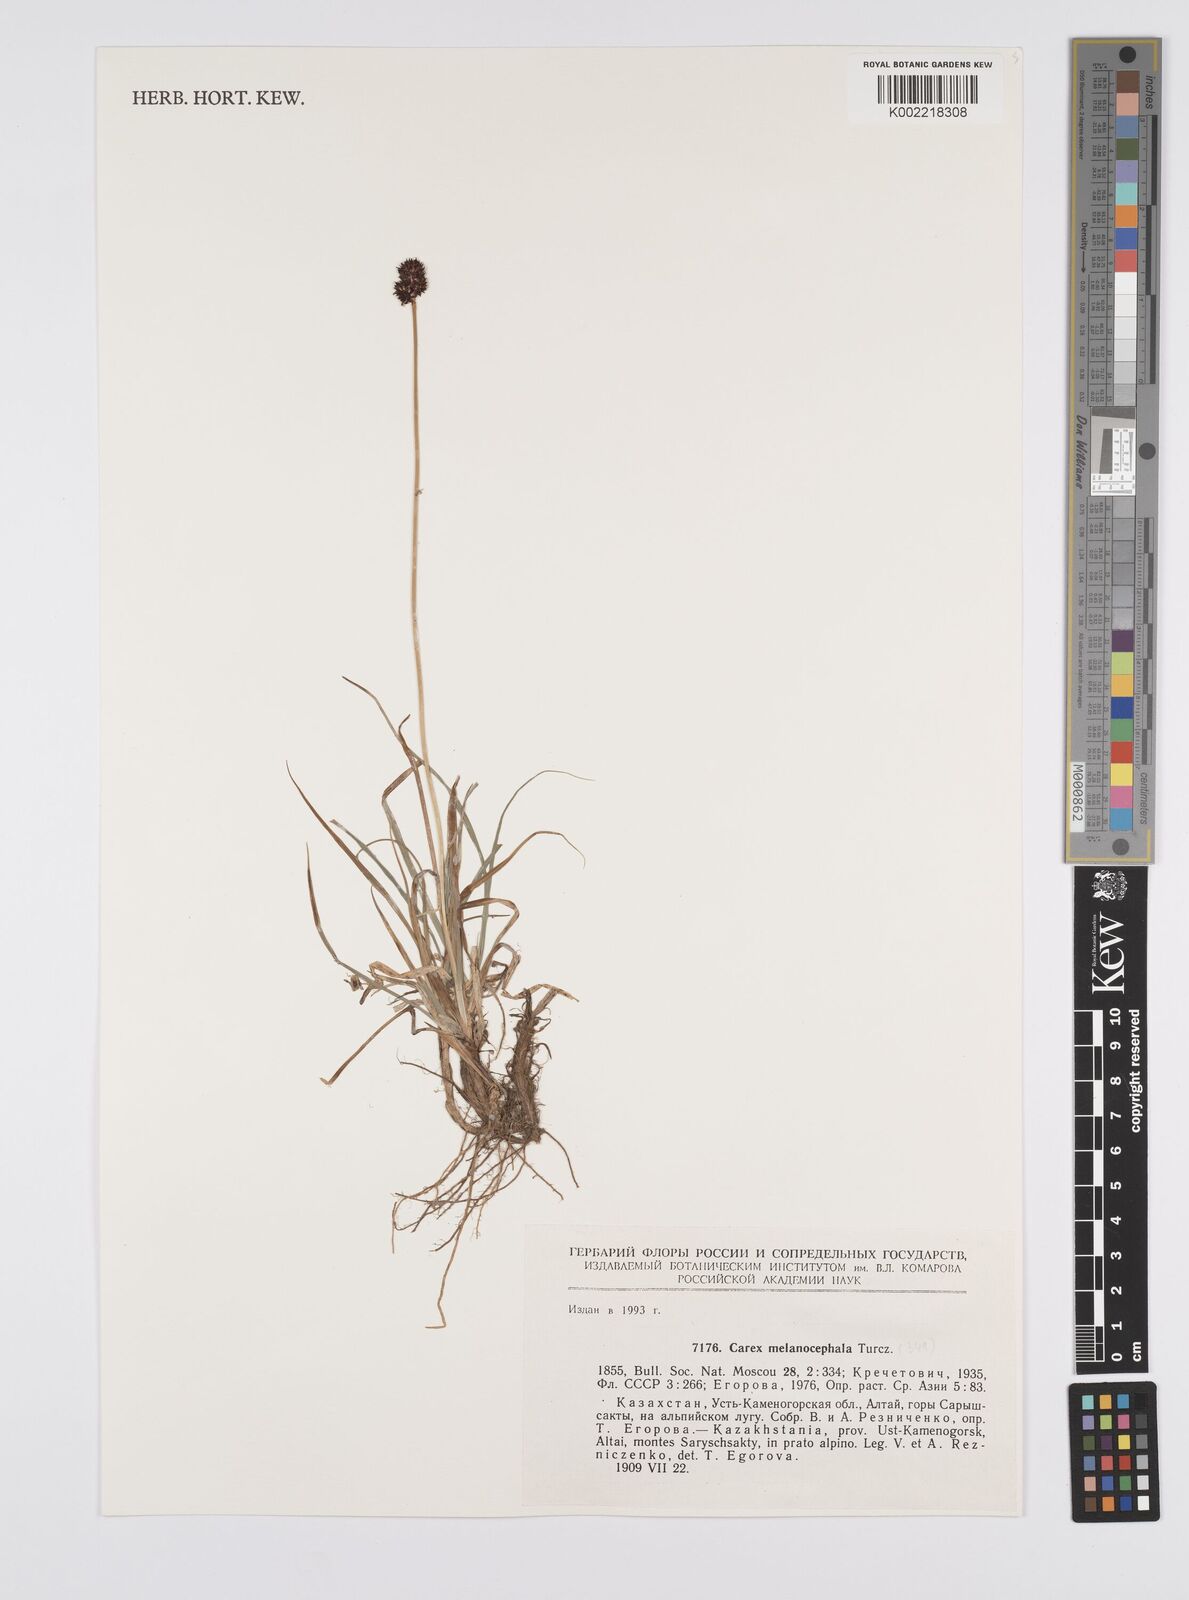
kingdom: Plantae
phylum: Tracheophyta
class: Liliopsida
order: Poales
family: Cyperaceae
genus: Carex
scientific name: Carex melanocephala
